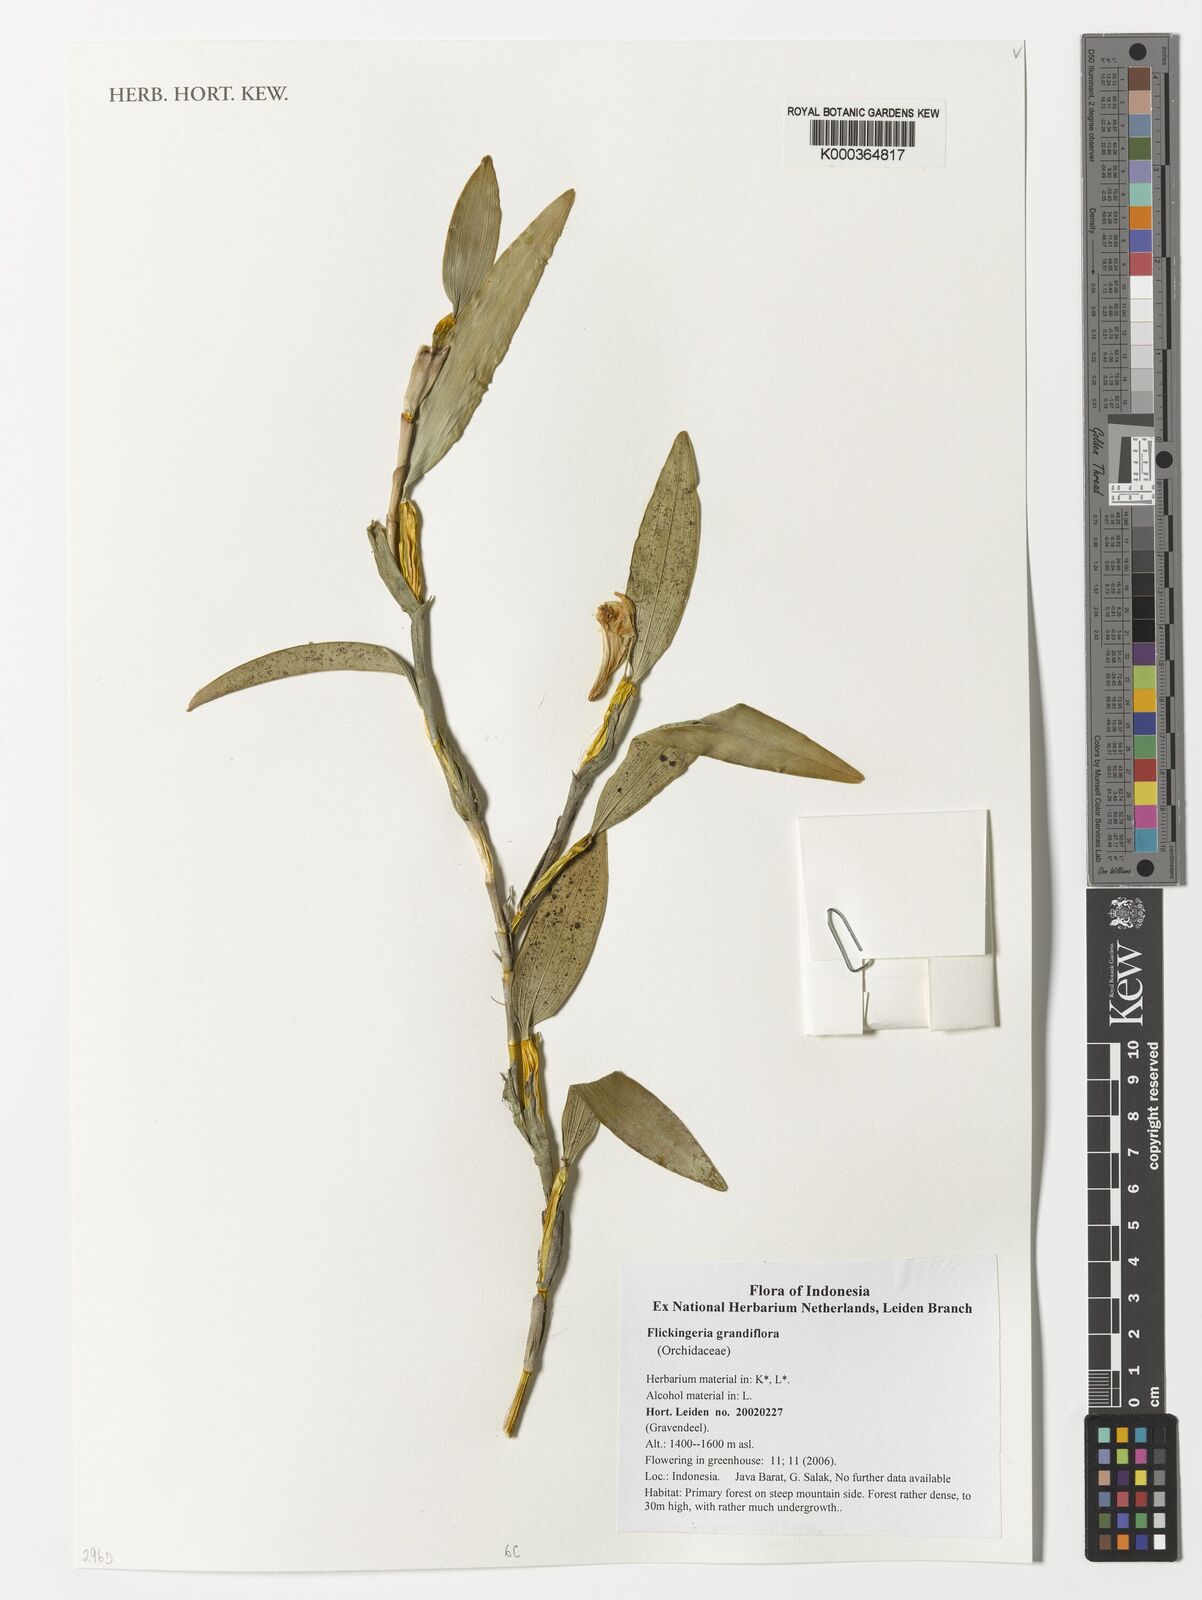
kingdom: Plantae
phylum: Tracheophyta
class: Liliopsida
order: Asparagales
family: Orchidaceae
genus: Dendrobium
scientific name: Dendrobium conspicuum
